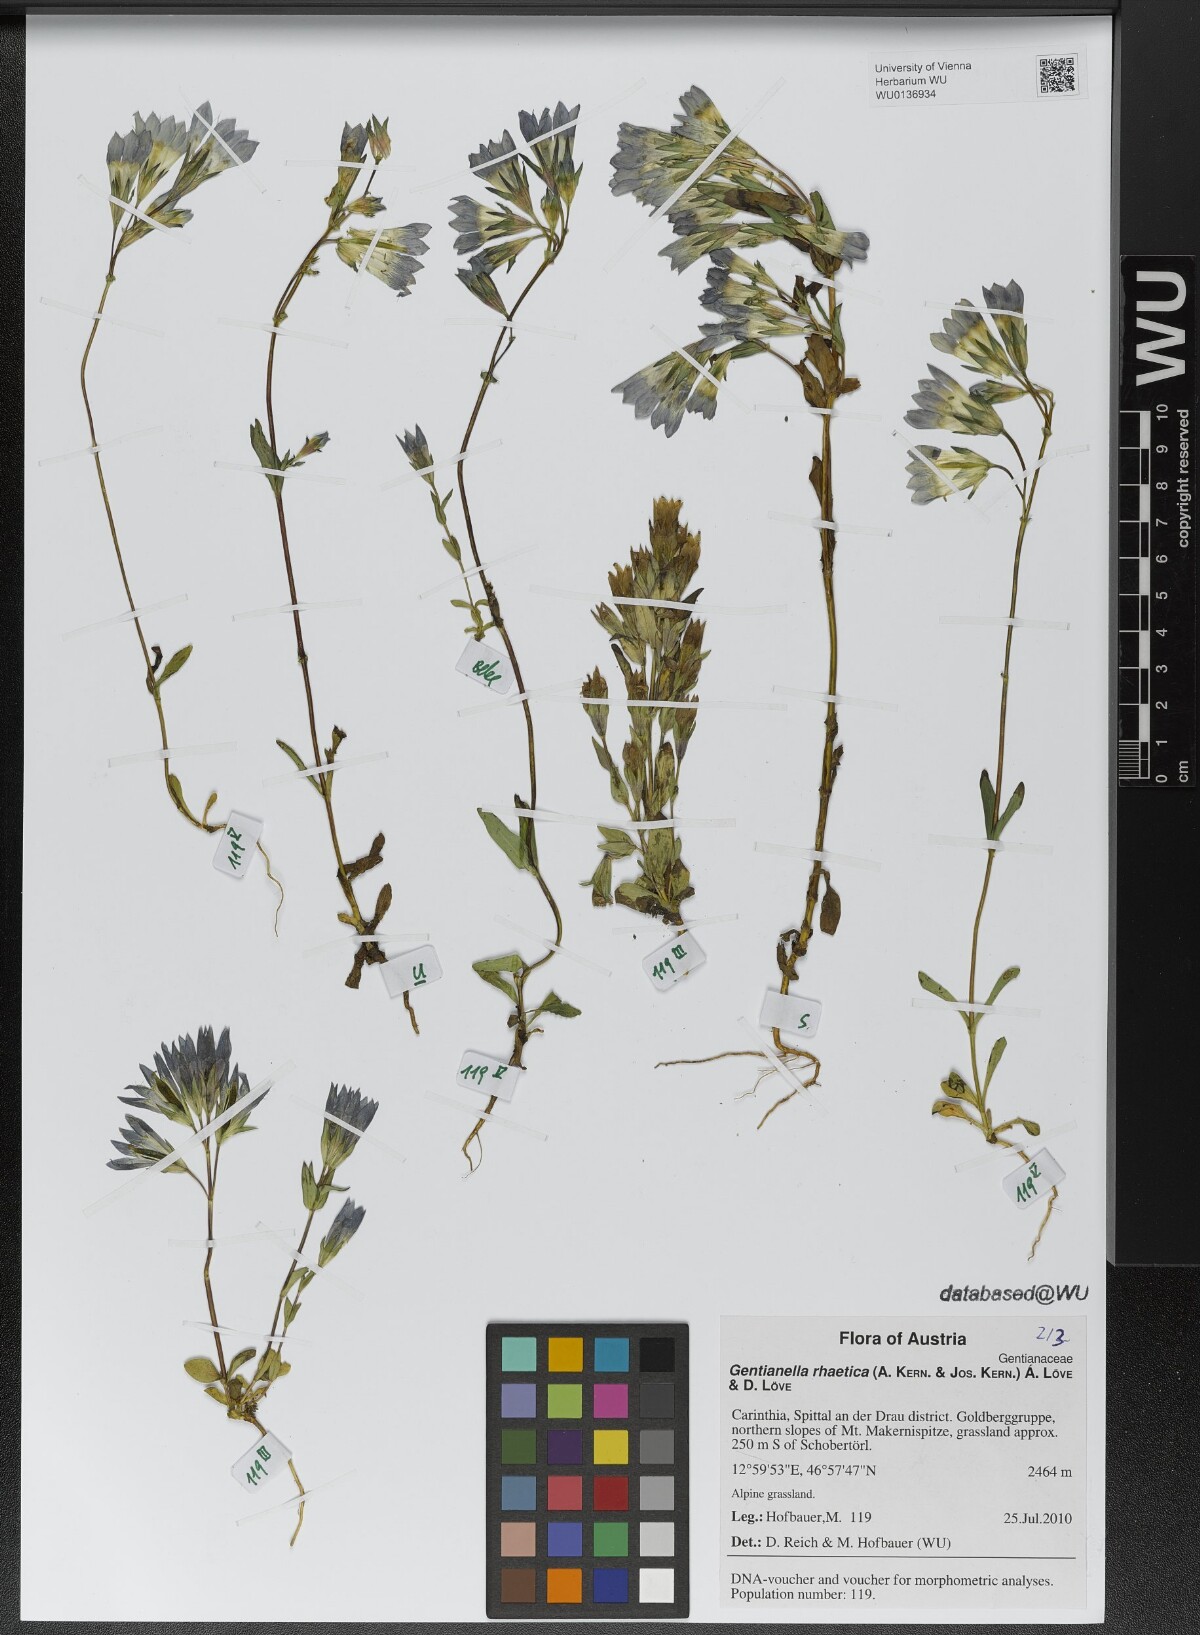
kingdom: Plantae
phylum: Tracheophyta
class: Magnoliopsida
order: Gentianales
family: Gentianaceae
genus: Gentianella
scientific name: Gentianella rhaetica
